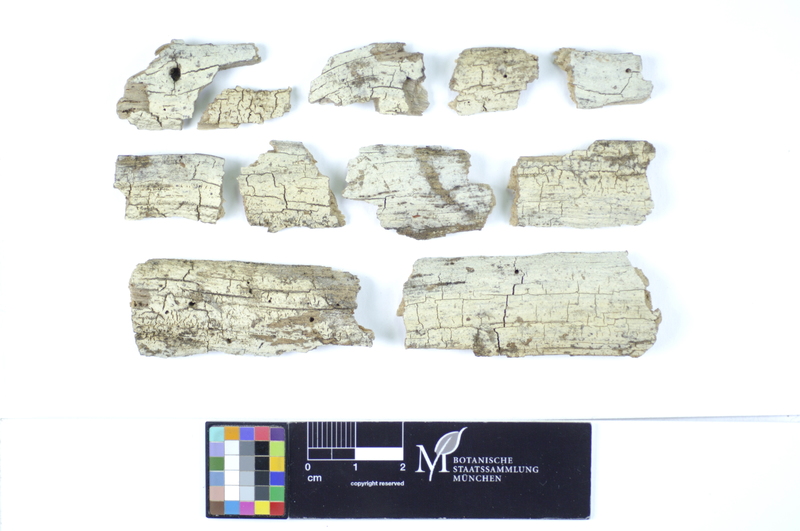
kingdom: Plantae
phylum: Tracheophyta
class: Magnoliopsida
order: Fagales
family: Fagaceae
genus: Fagus
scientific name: Fagus sylvatica
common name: Beech
